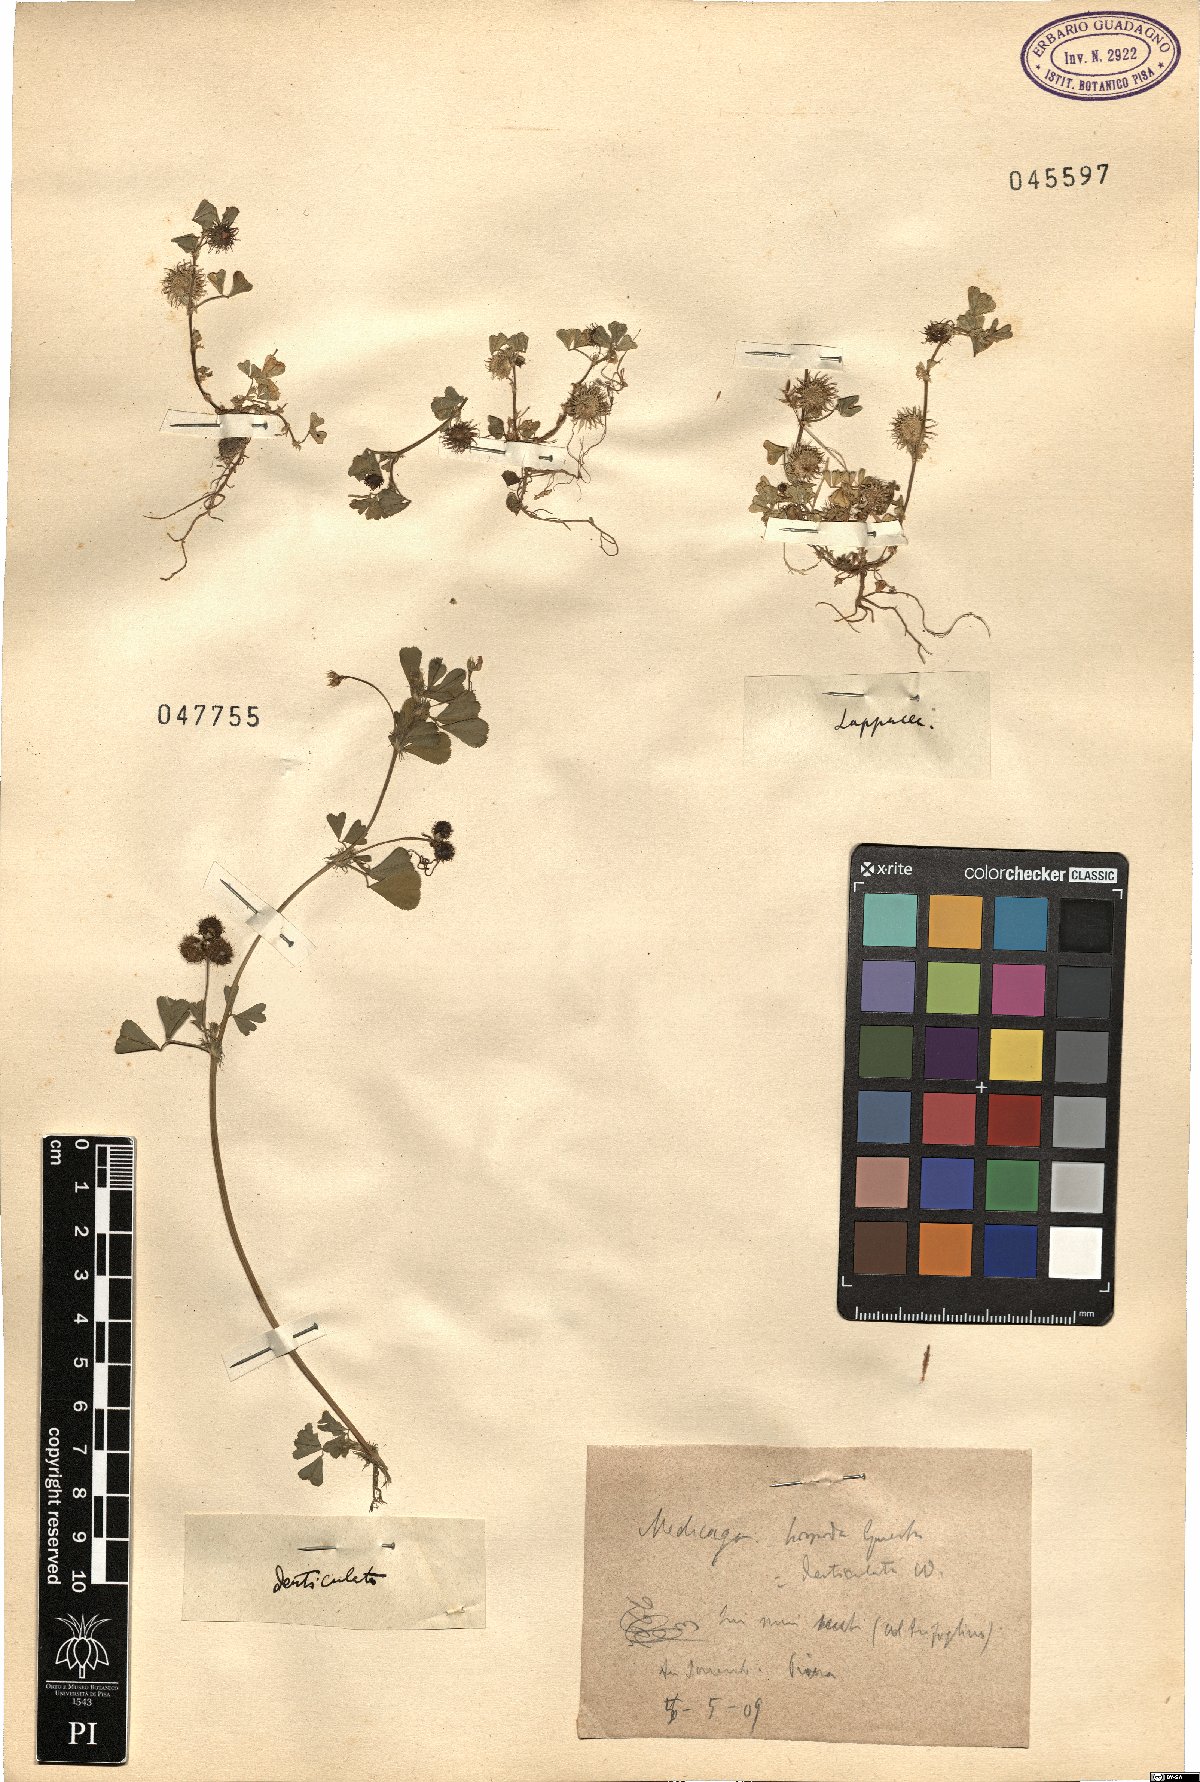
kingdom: Plantae
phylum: Tracheophyta
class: Magnoliopsida
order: Fabales
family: Fabaceae
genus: Medicago
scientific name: Medicago polymorpha
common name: Burclover
